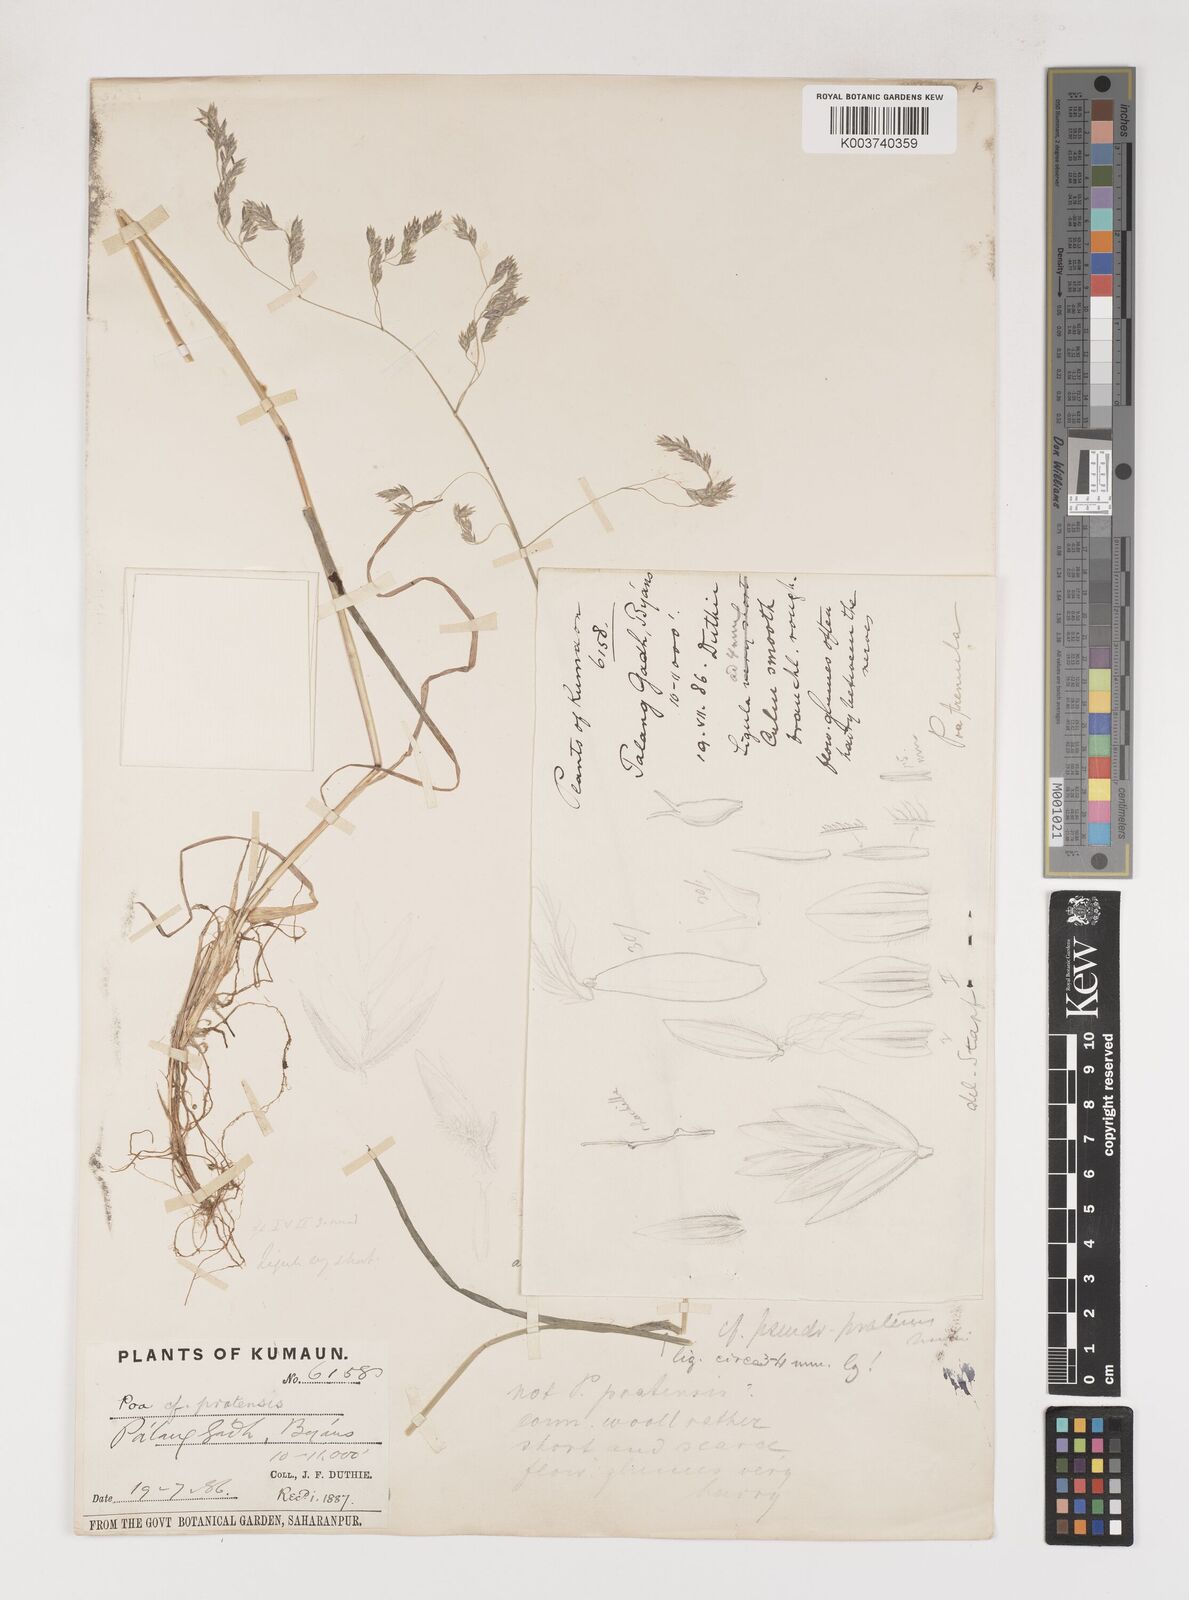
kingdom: Plantae
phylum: Tracheophyta
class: Liliopsida
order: Poales
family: Poaceae
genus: Poa
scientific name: Poa stapfiana
